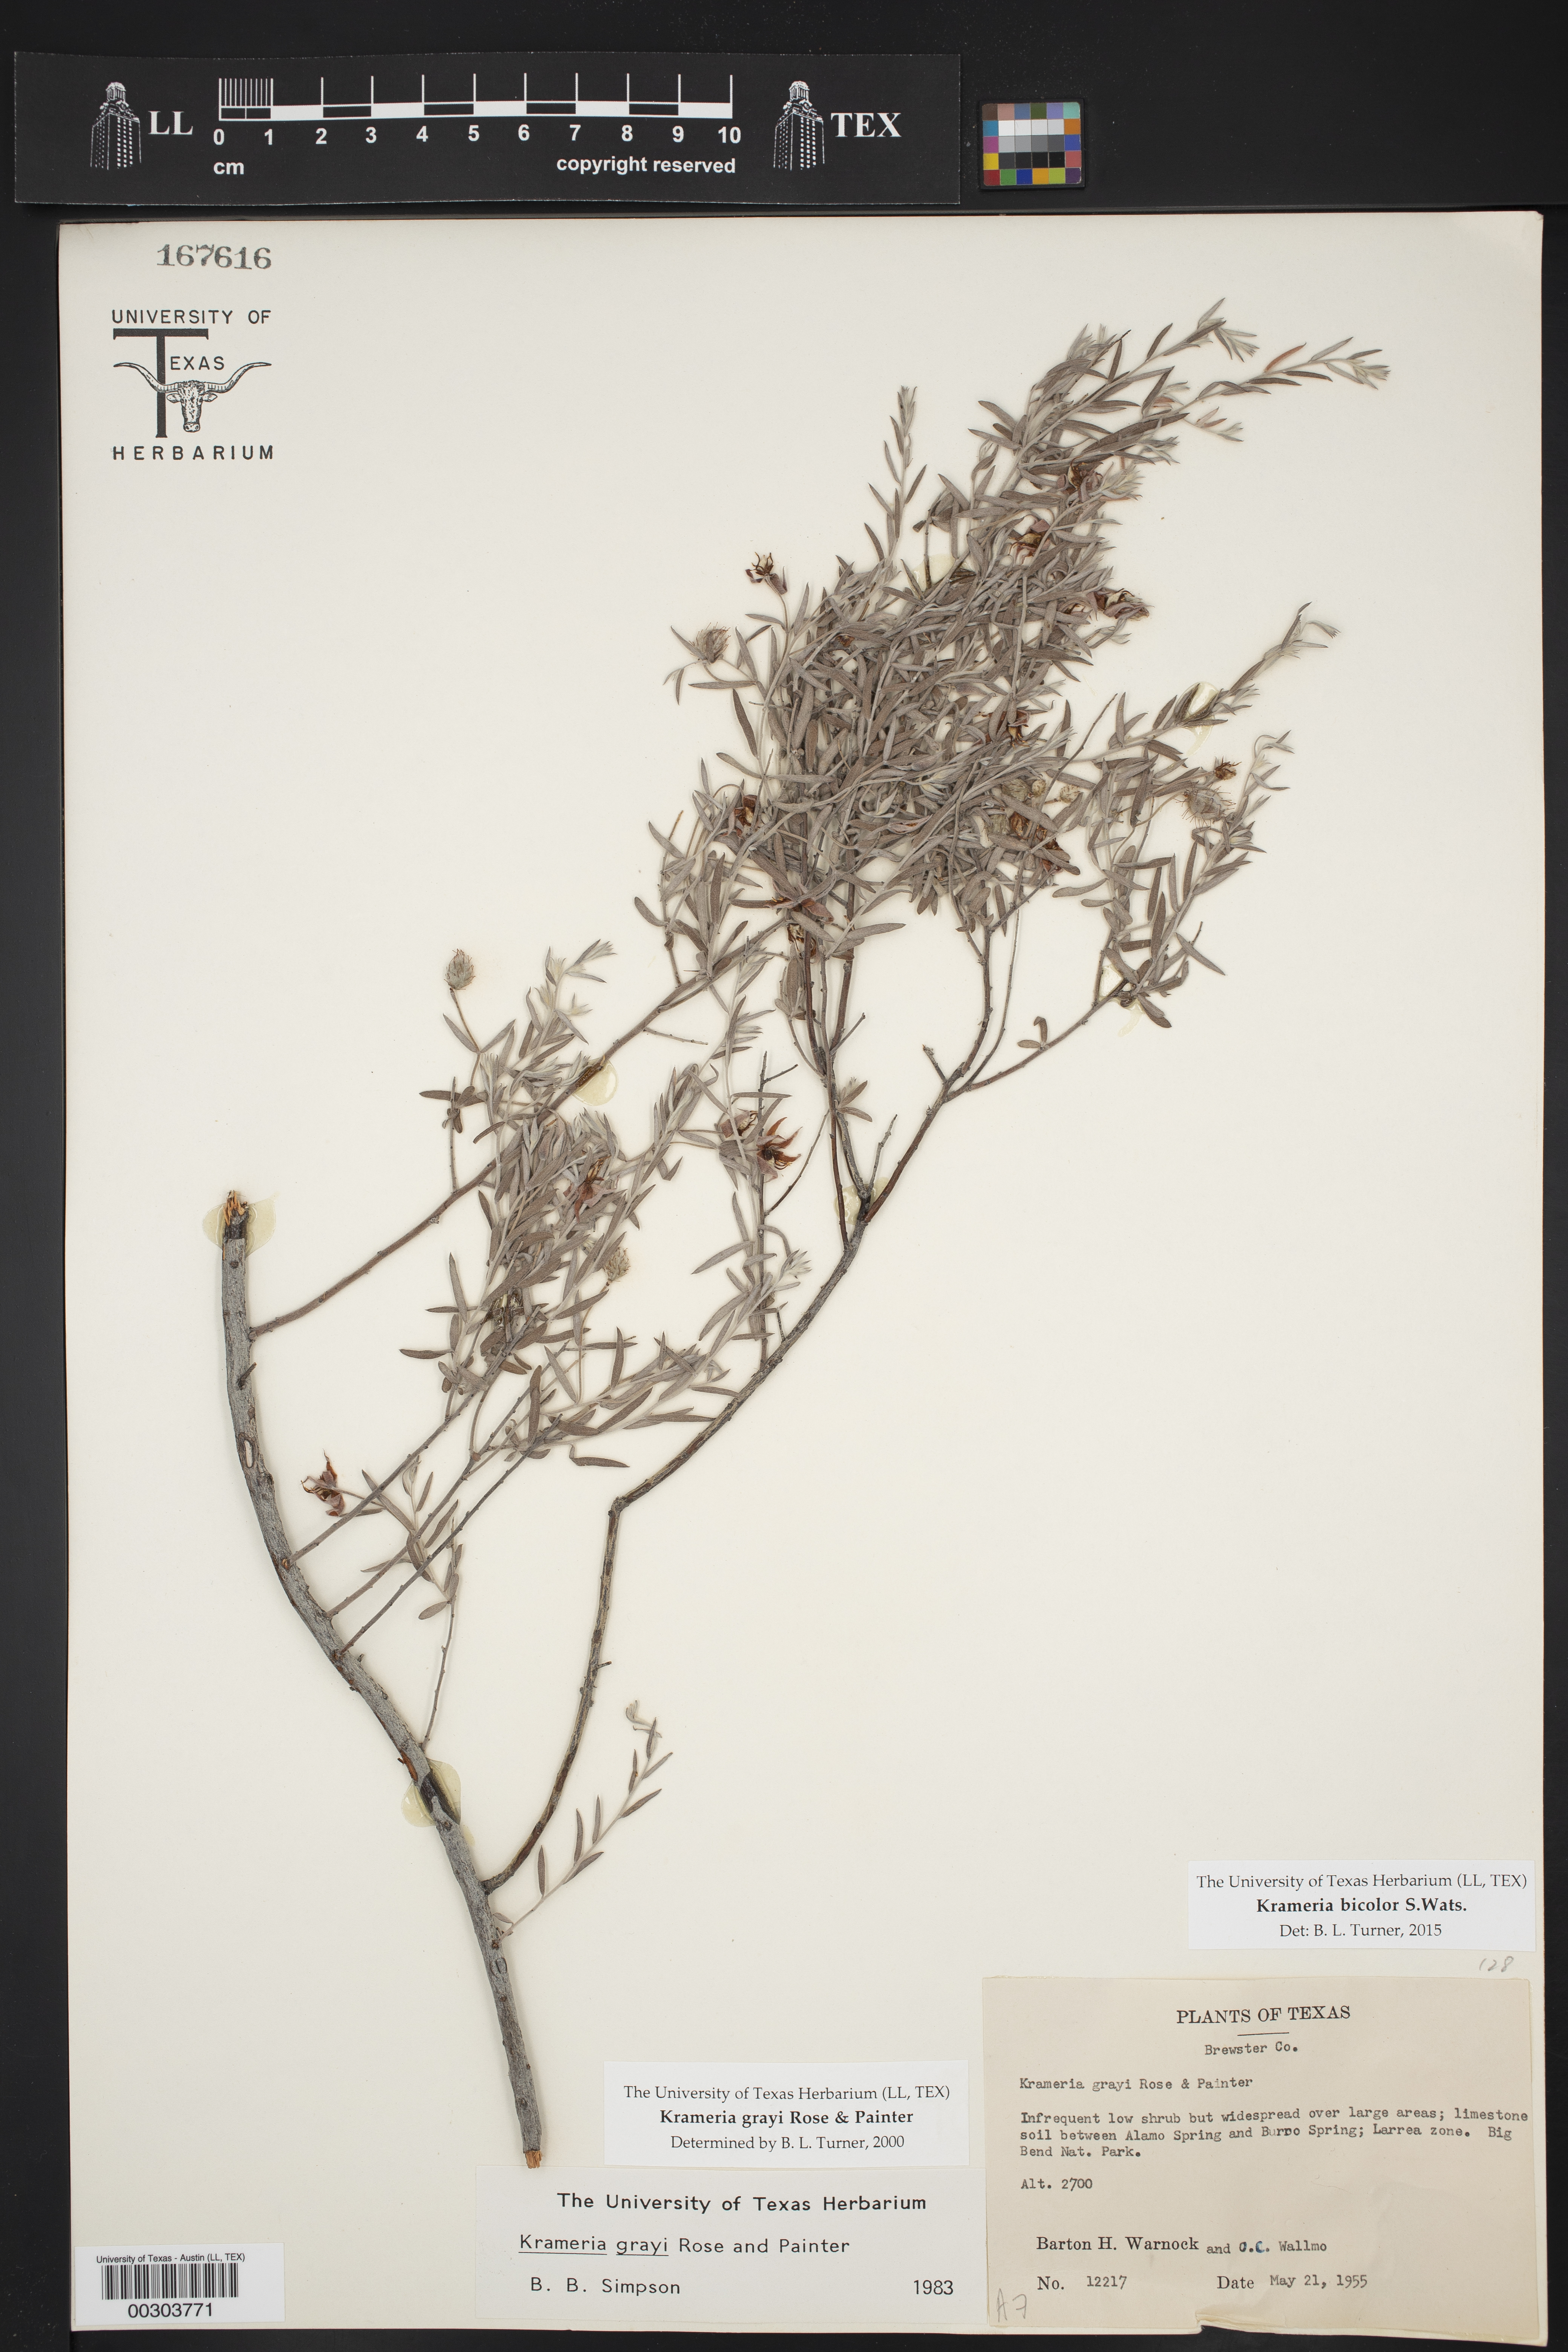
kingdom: Plantae
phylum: Tracheophyta
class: Magnoliopsida
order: Zygophyllales
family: Krameriaceae
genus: Krameria
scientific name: Krameria bicolor
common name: White ratany
